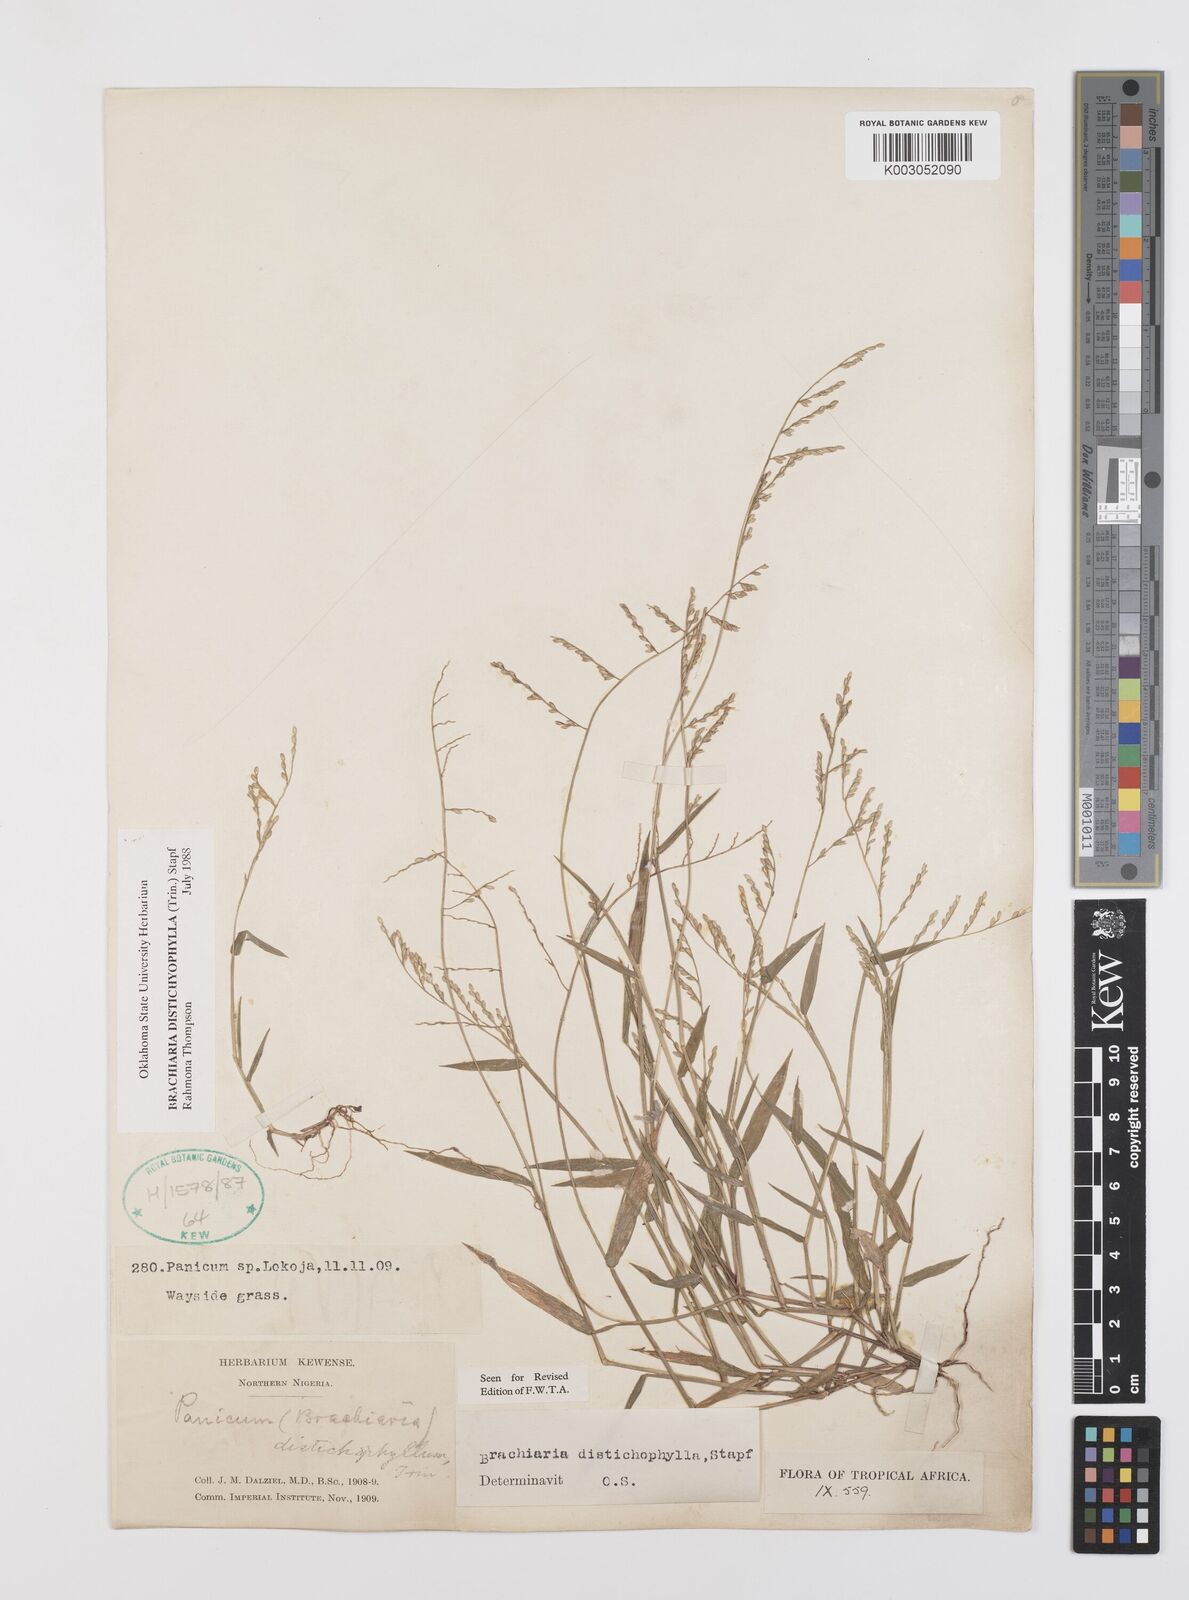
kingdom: Plantae
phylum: Tracheophyta
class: Liliopsida
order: Poales
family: Poaceae
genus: Urochloa
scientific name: Urochloa villosa
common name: Hairy signalgrass
